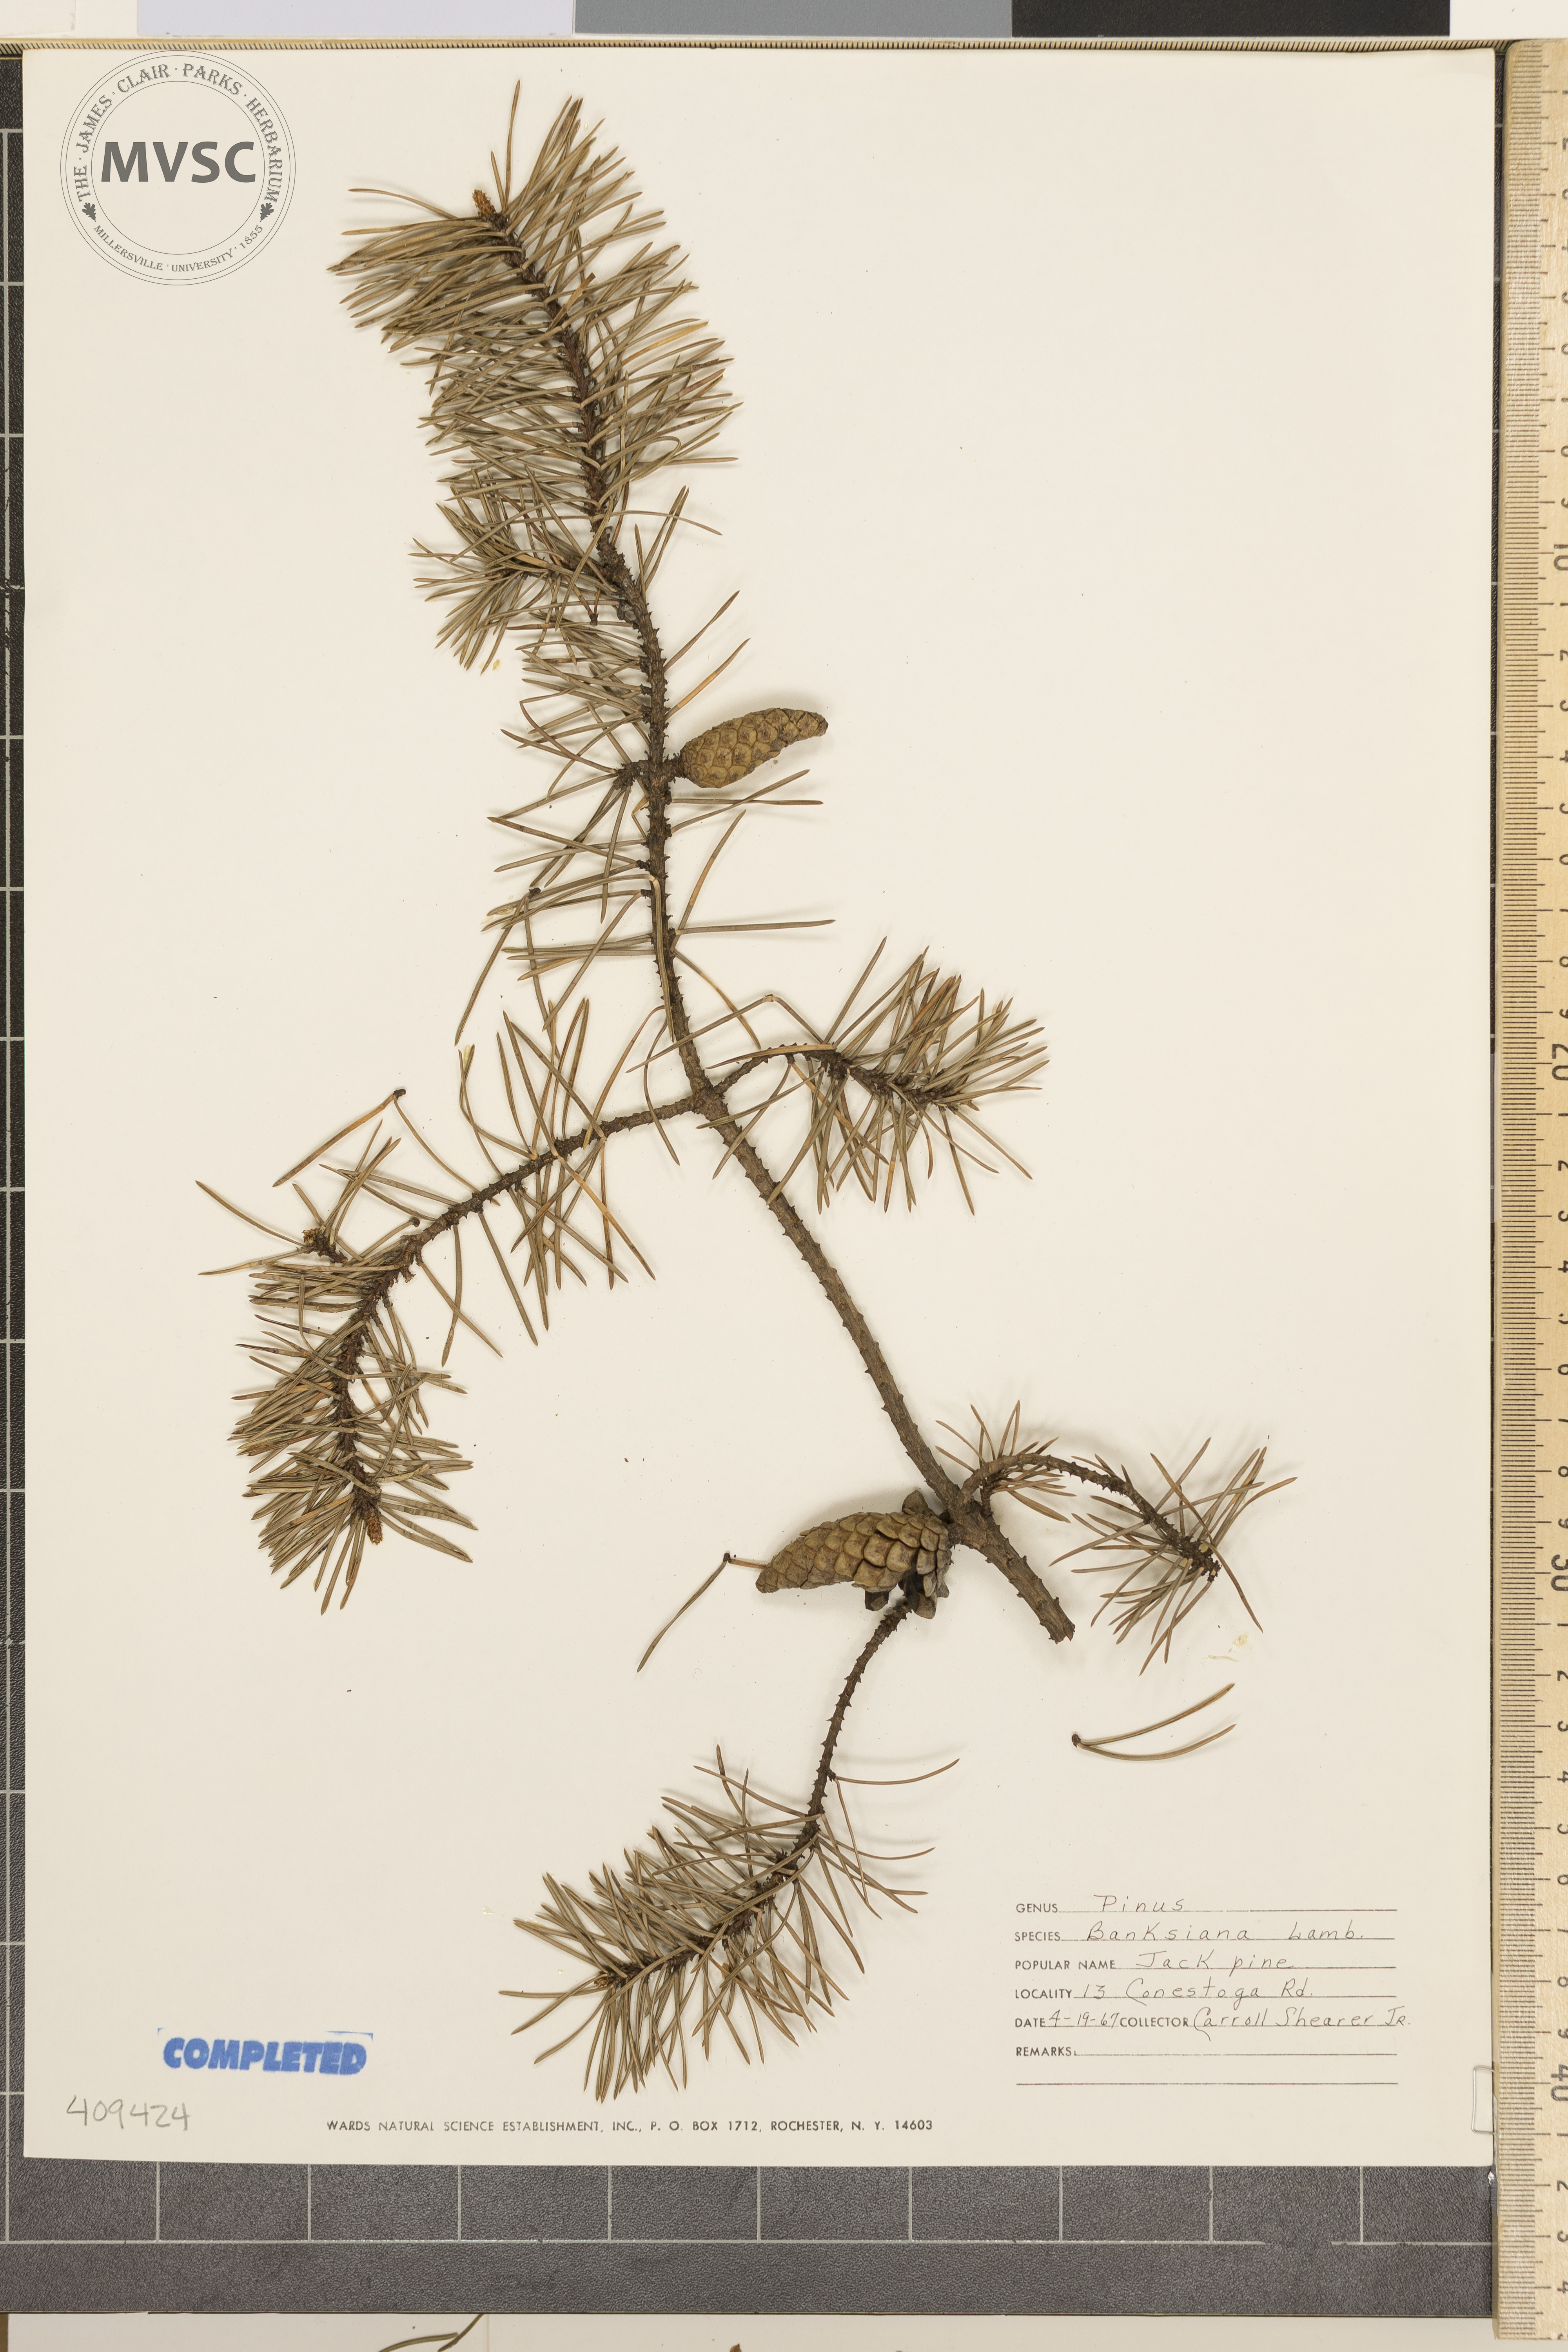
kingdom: Plantae
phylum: Tracheophyta
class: Pinopsida
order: Pinales
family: Pinaceae
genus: Pinus
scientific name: Pinus banksiana
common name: Jack Pine
